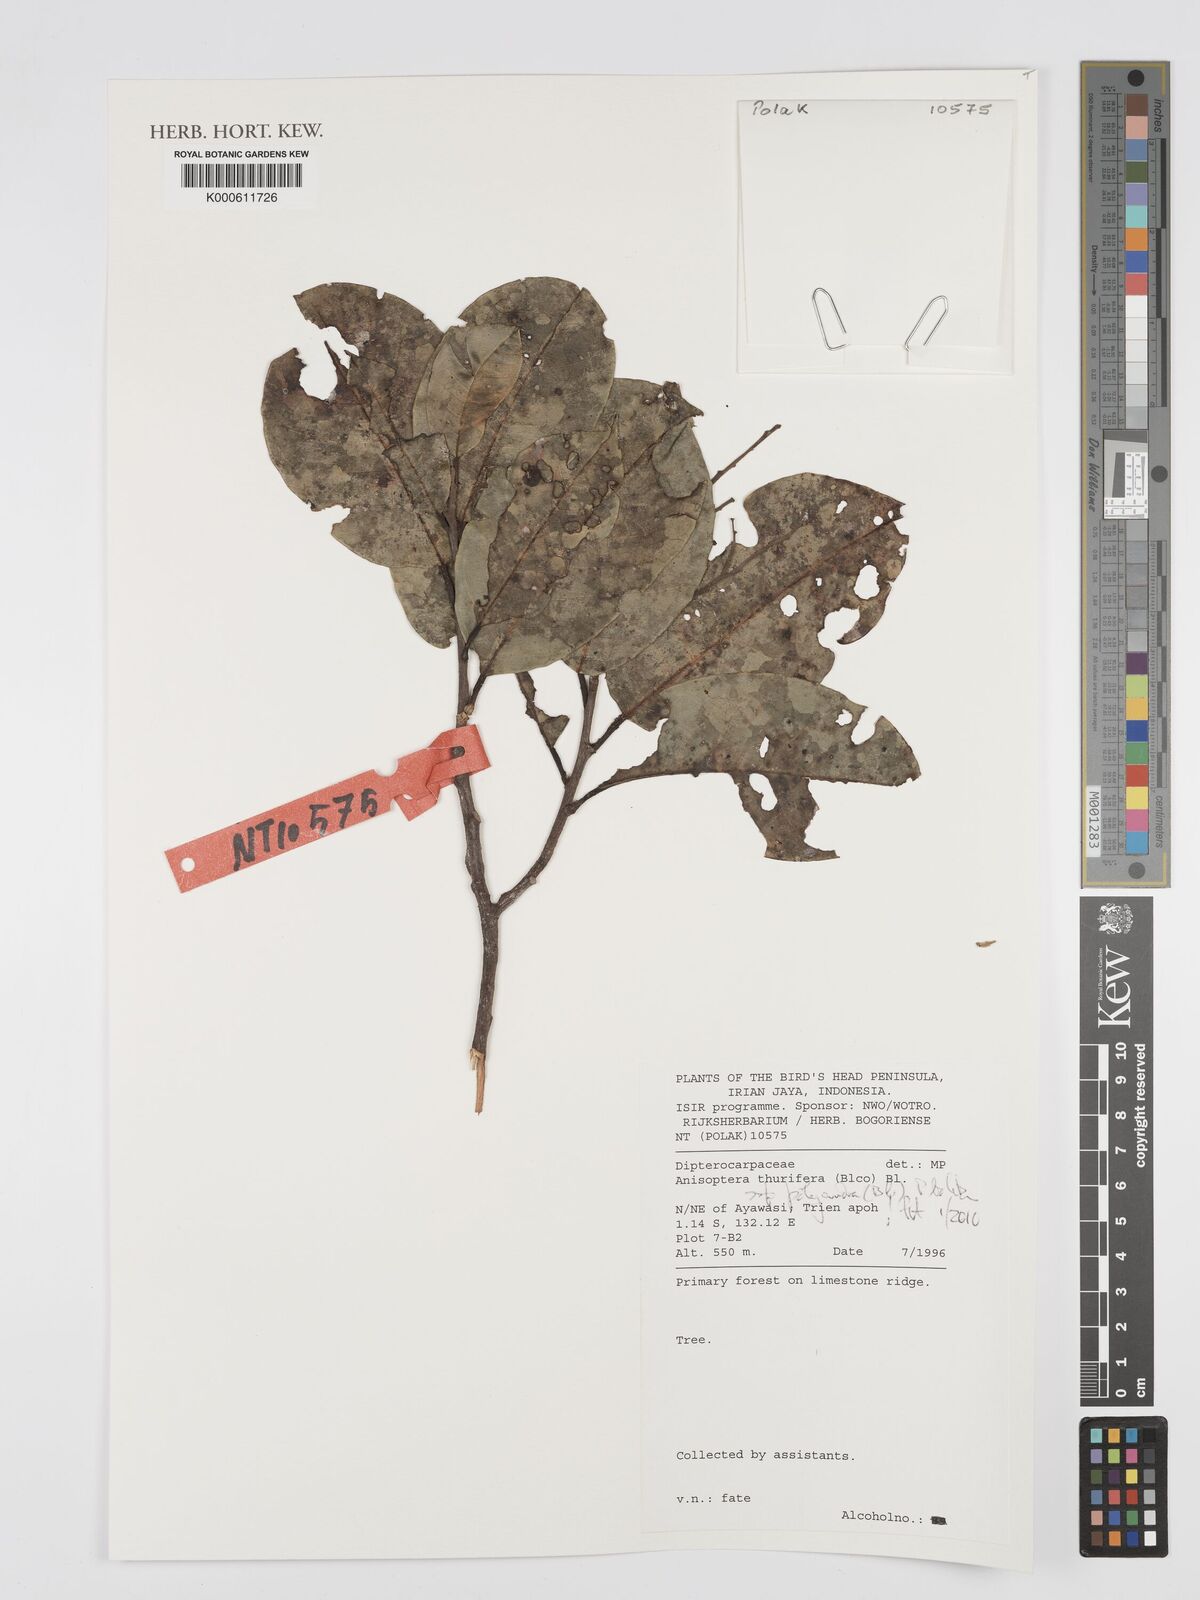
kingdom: Plantae
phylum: Tracheophyta
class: Magnoliopsida
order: Malvales
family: Dipterocarpaceae
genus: Anisoptera
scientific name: Anisoptera thurifera
